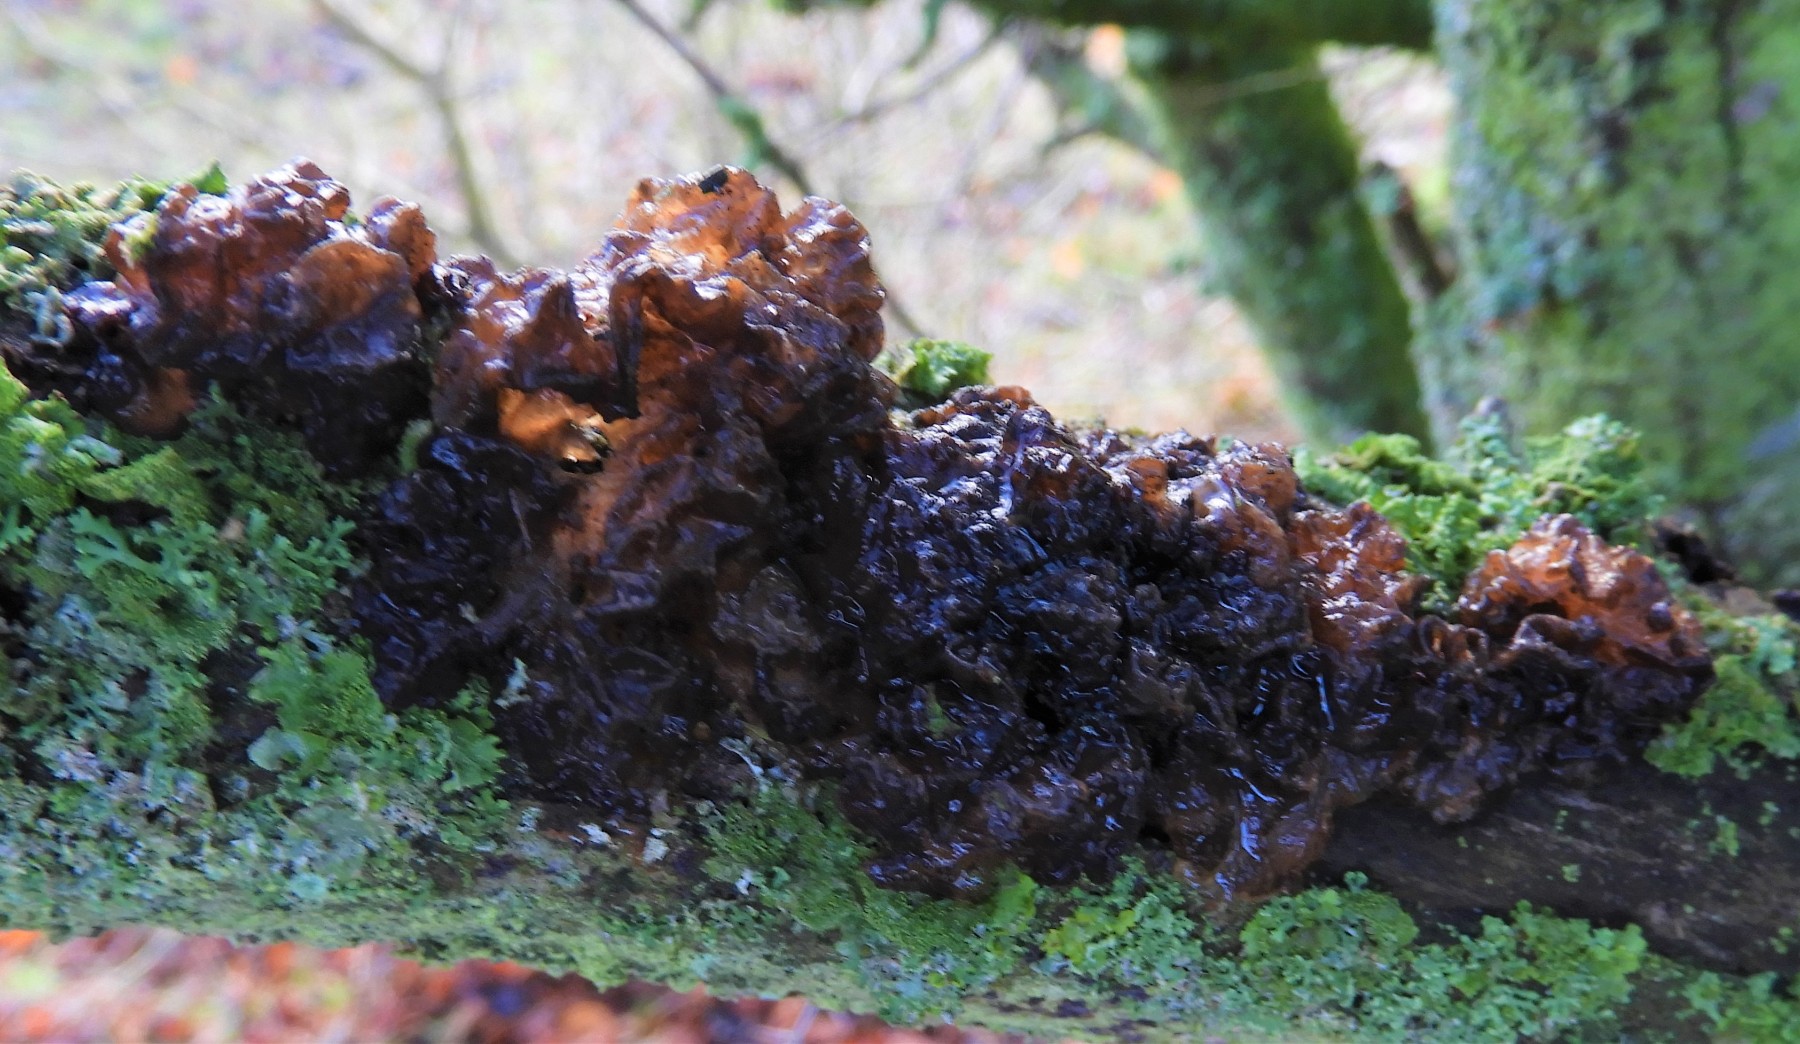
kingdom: Fungi
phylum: Basidiomycota
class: Tremellomycetes
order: Tremellales
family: Tremellaceae
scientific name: Tremellaceae
